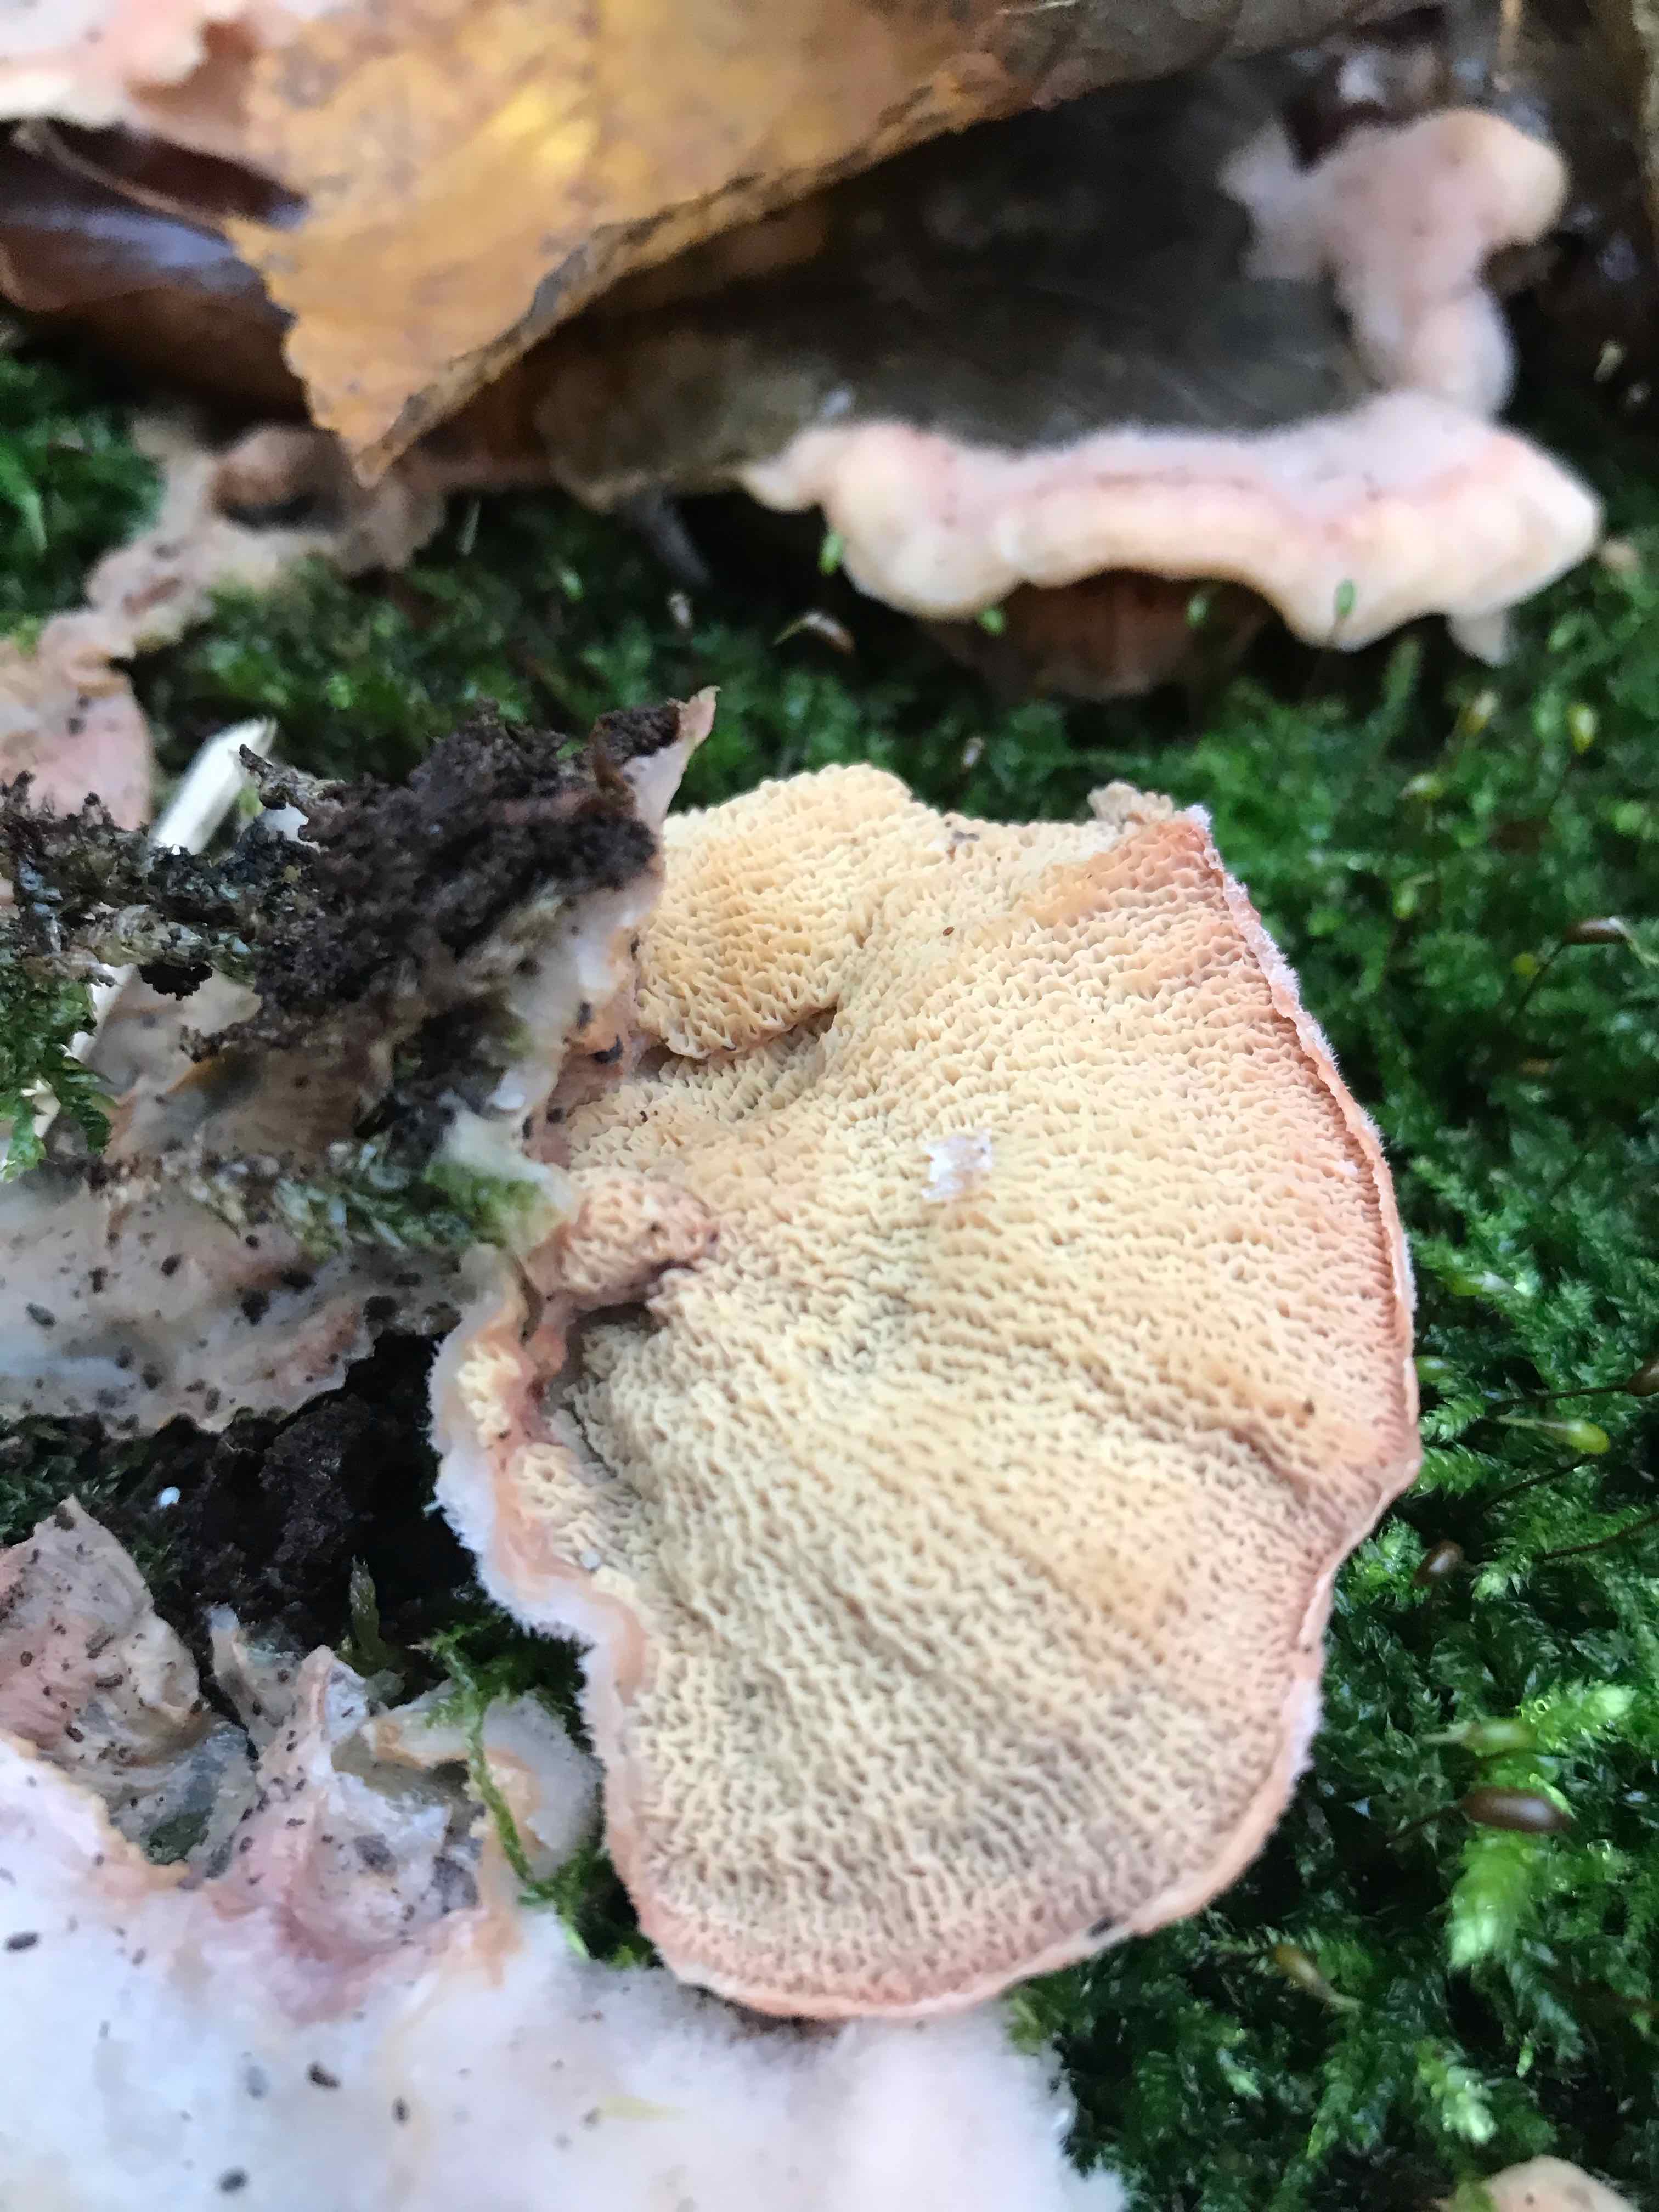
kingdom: Fungi
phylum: Basidiomycota
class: Agaricomycetes
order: Polyporales
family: Meruliaceae
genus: Phlebia
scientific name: Phlebia tremellosa
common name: bævrende åresvamp
